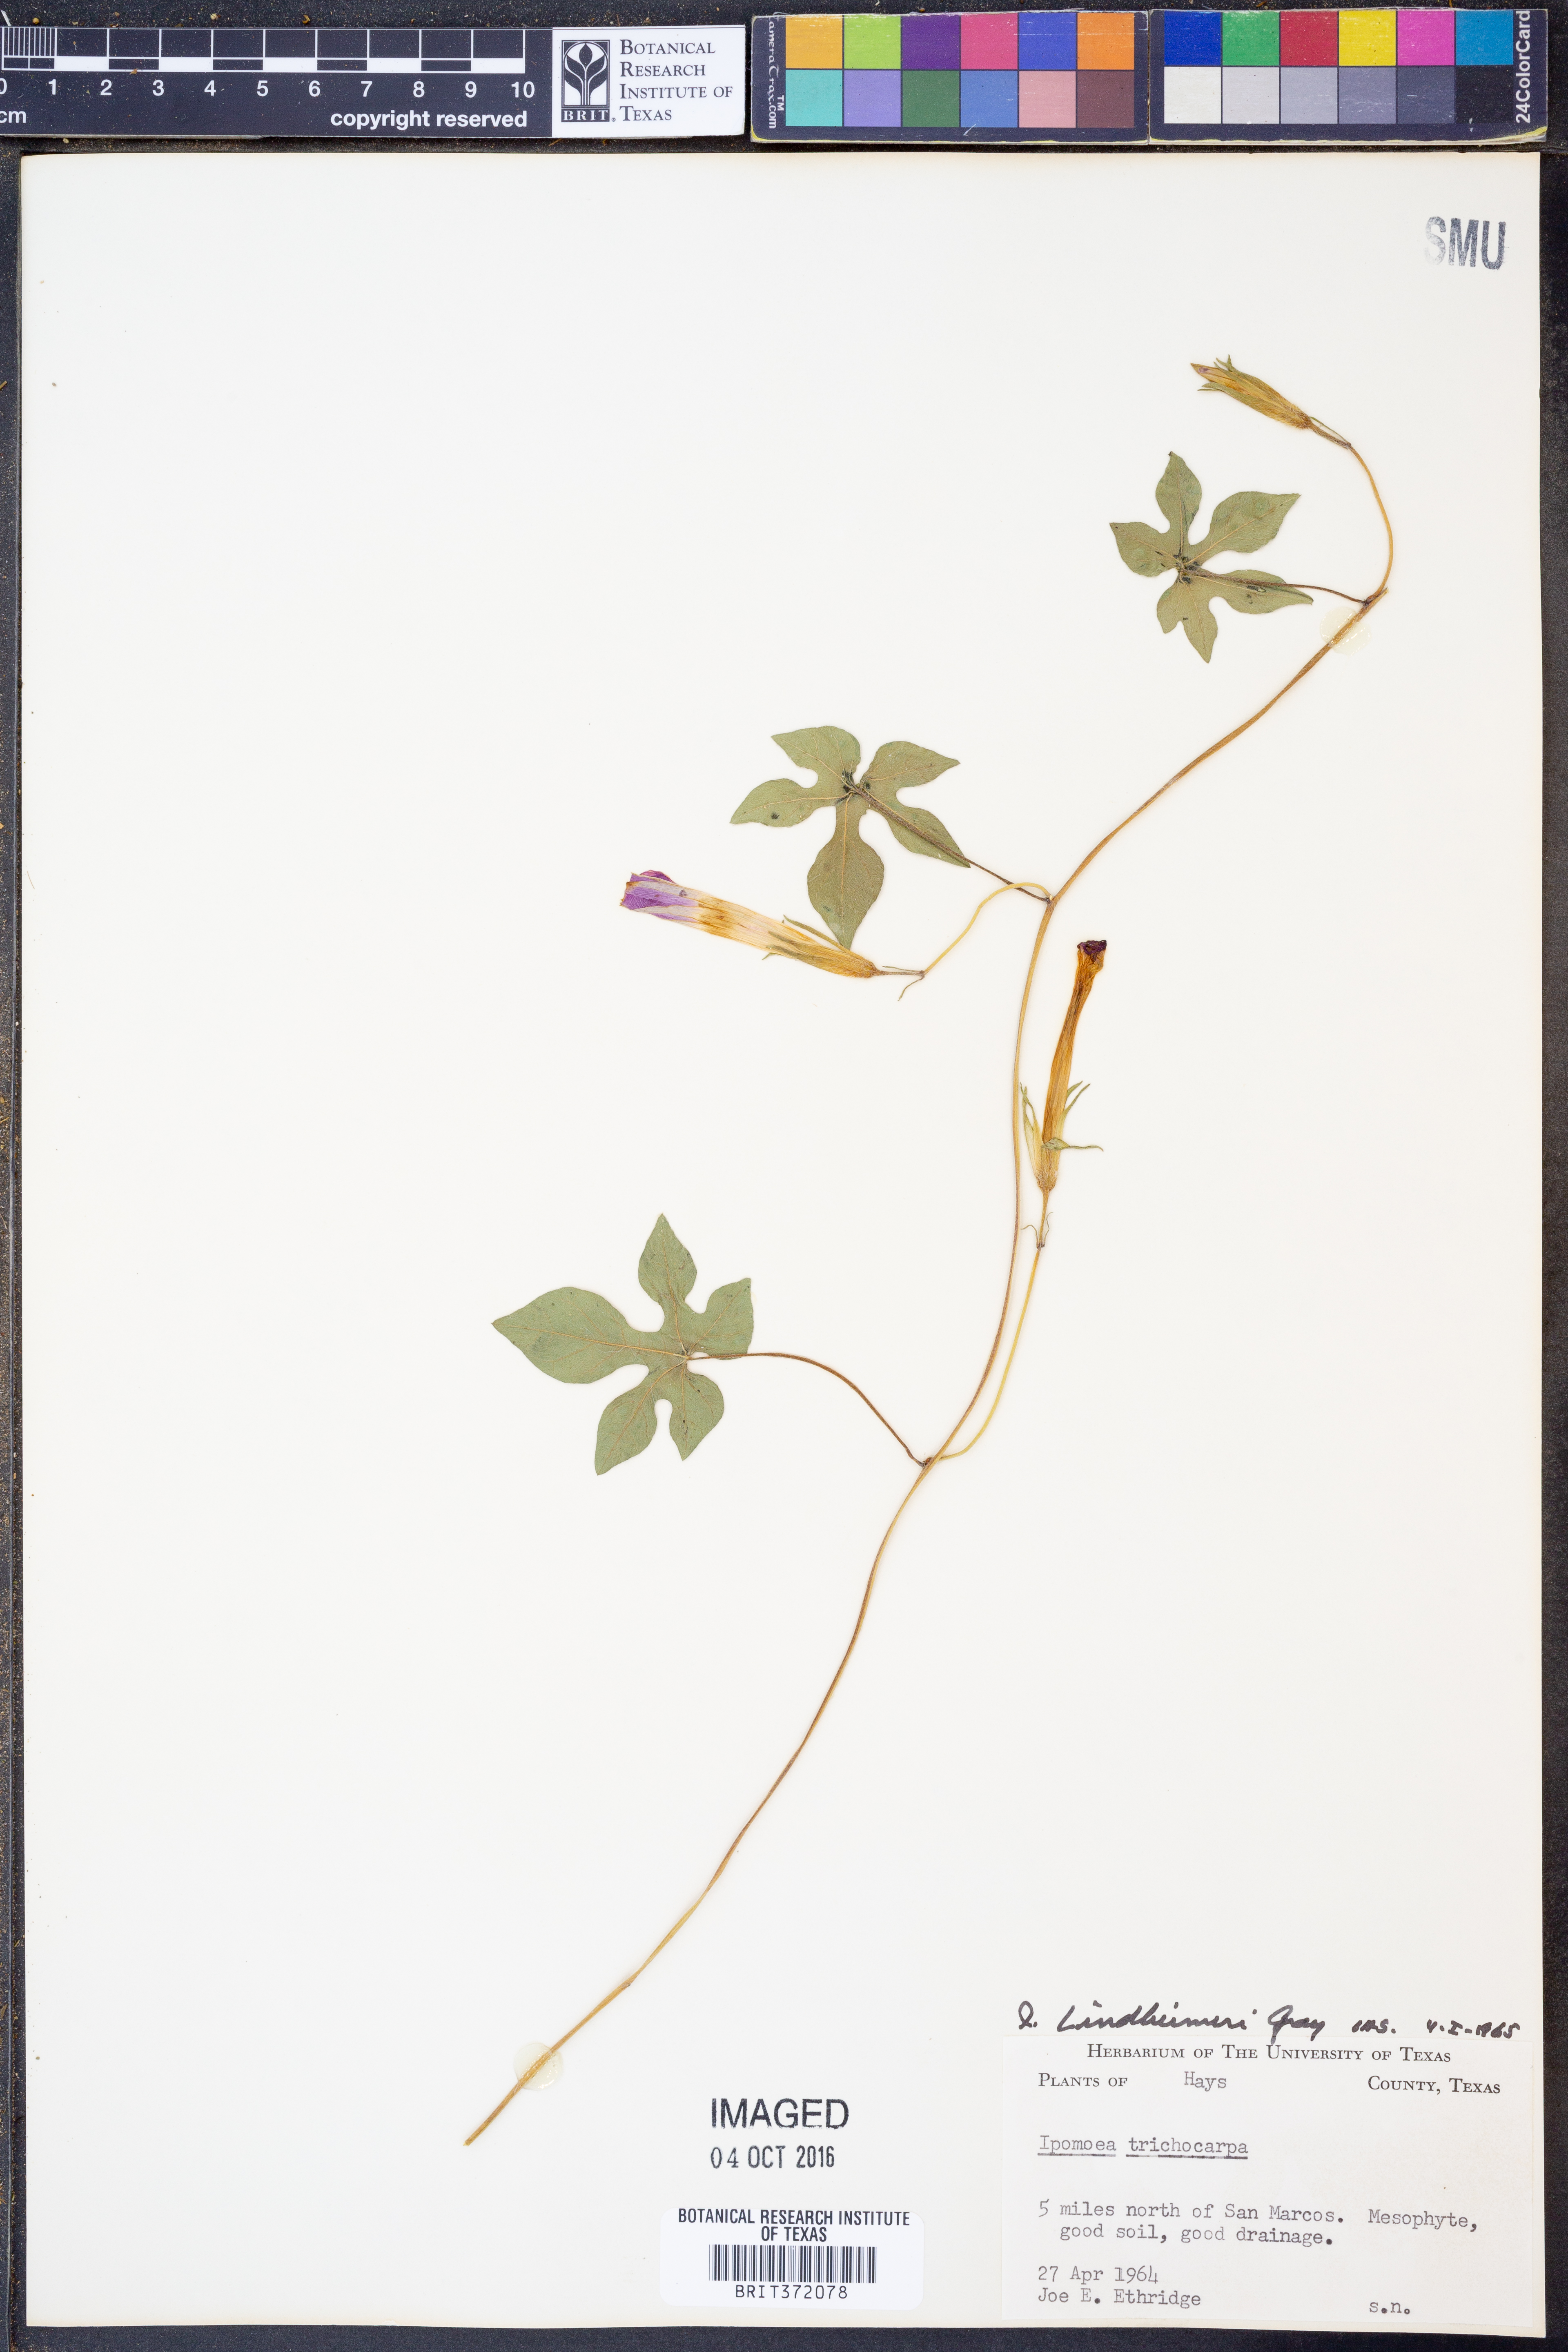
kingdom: Plantae
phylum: Tracheophyta
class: Magnoliopsida
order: Solanales
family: Convolvulaceae
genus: Ipomoea
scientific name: Ipomoea lindheimeri
